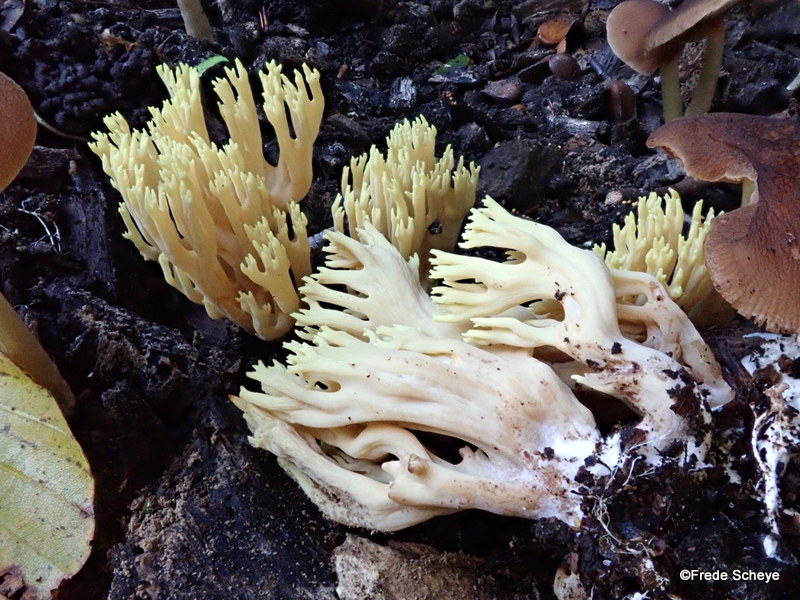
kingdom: Fungi
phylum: Basidiomycota
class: Agaricomycetes
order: Gomphales
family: Gomphaceae
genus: Ramaria
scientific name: Ramaria stricta
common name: rank koralsvamp
